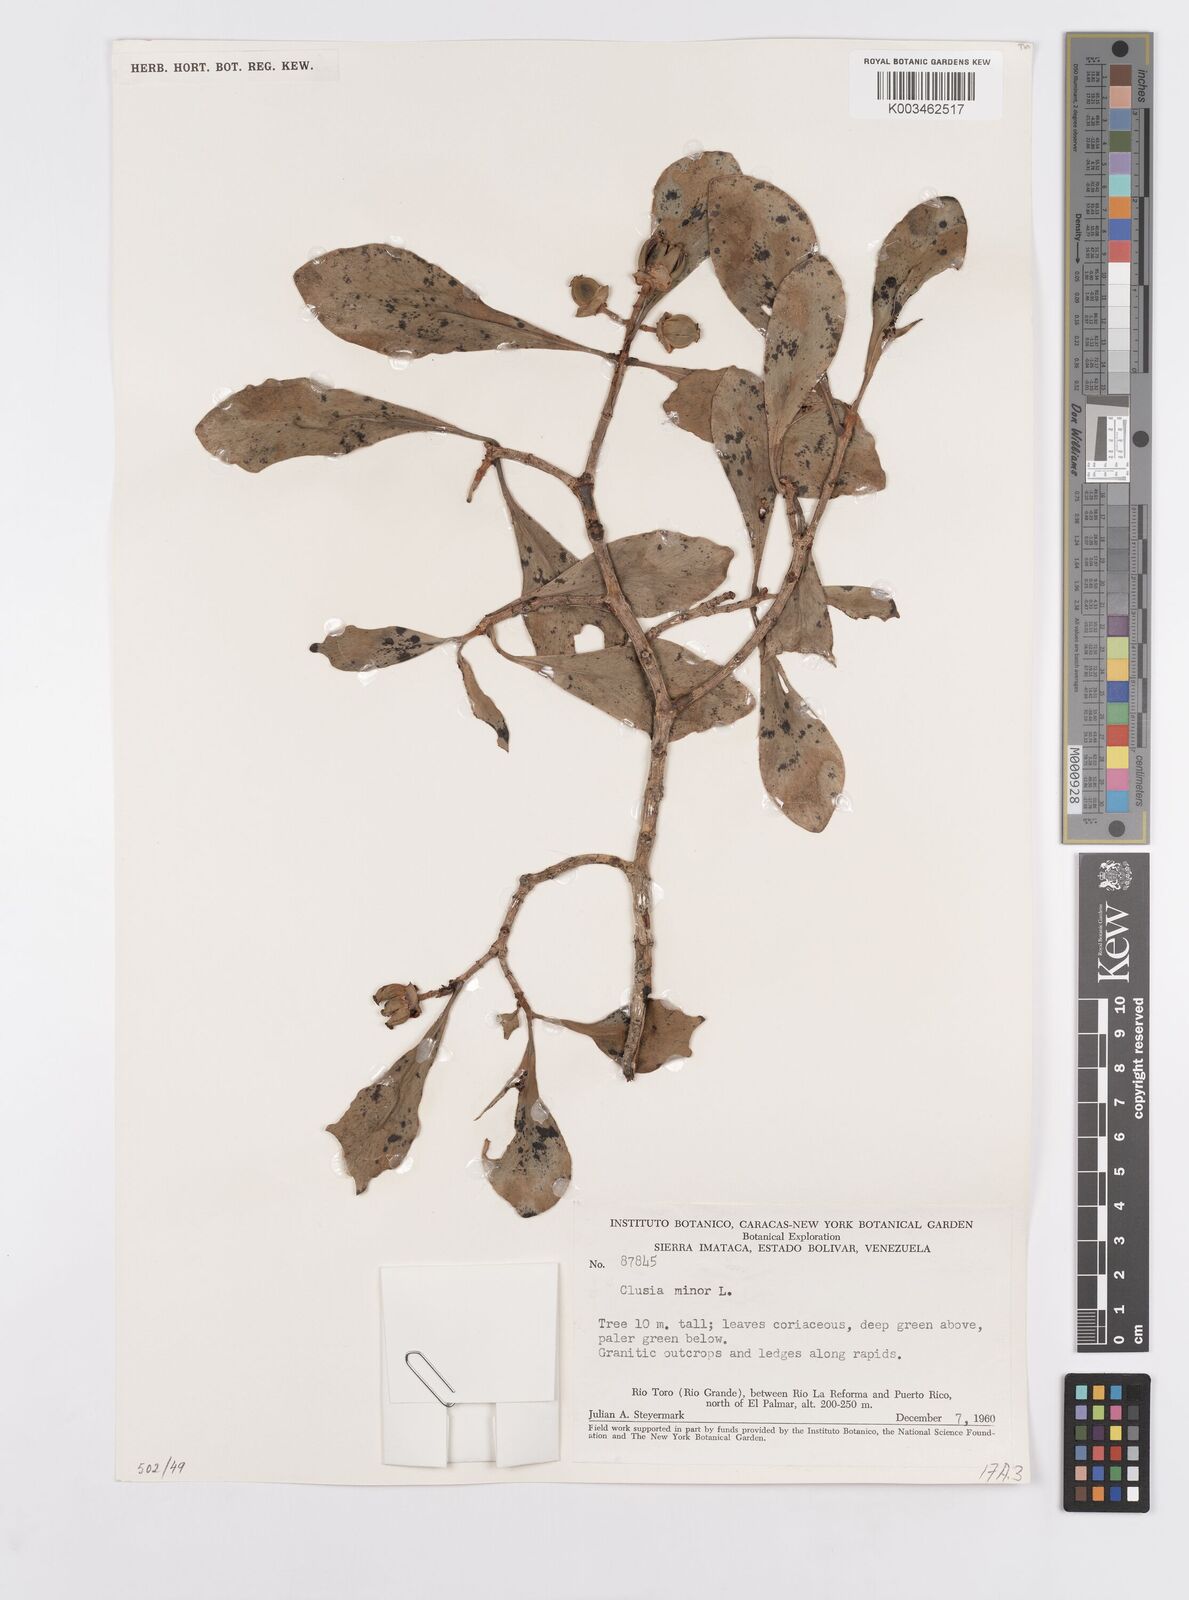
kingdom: Plantae
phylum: Tracheophyta
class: Magnoliopsida
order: Malpighiales
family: Clusiaceae
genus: Clusia
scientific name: Clusia minor
